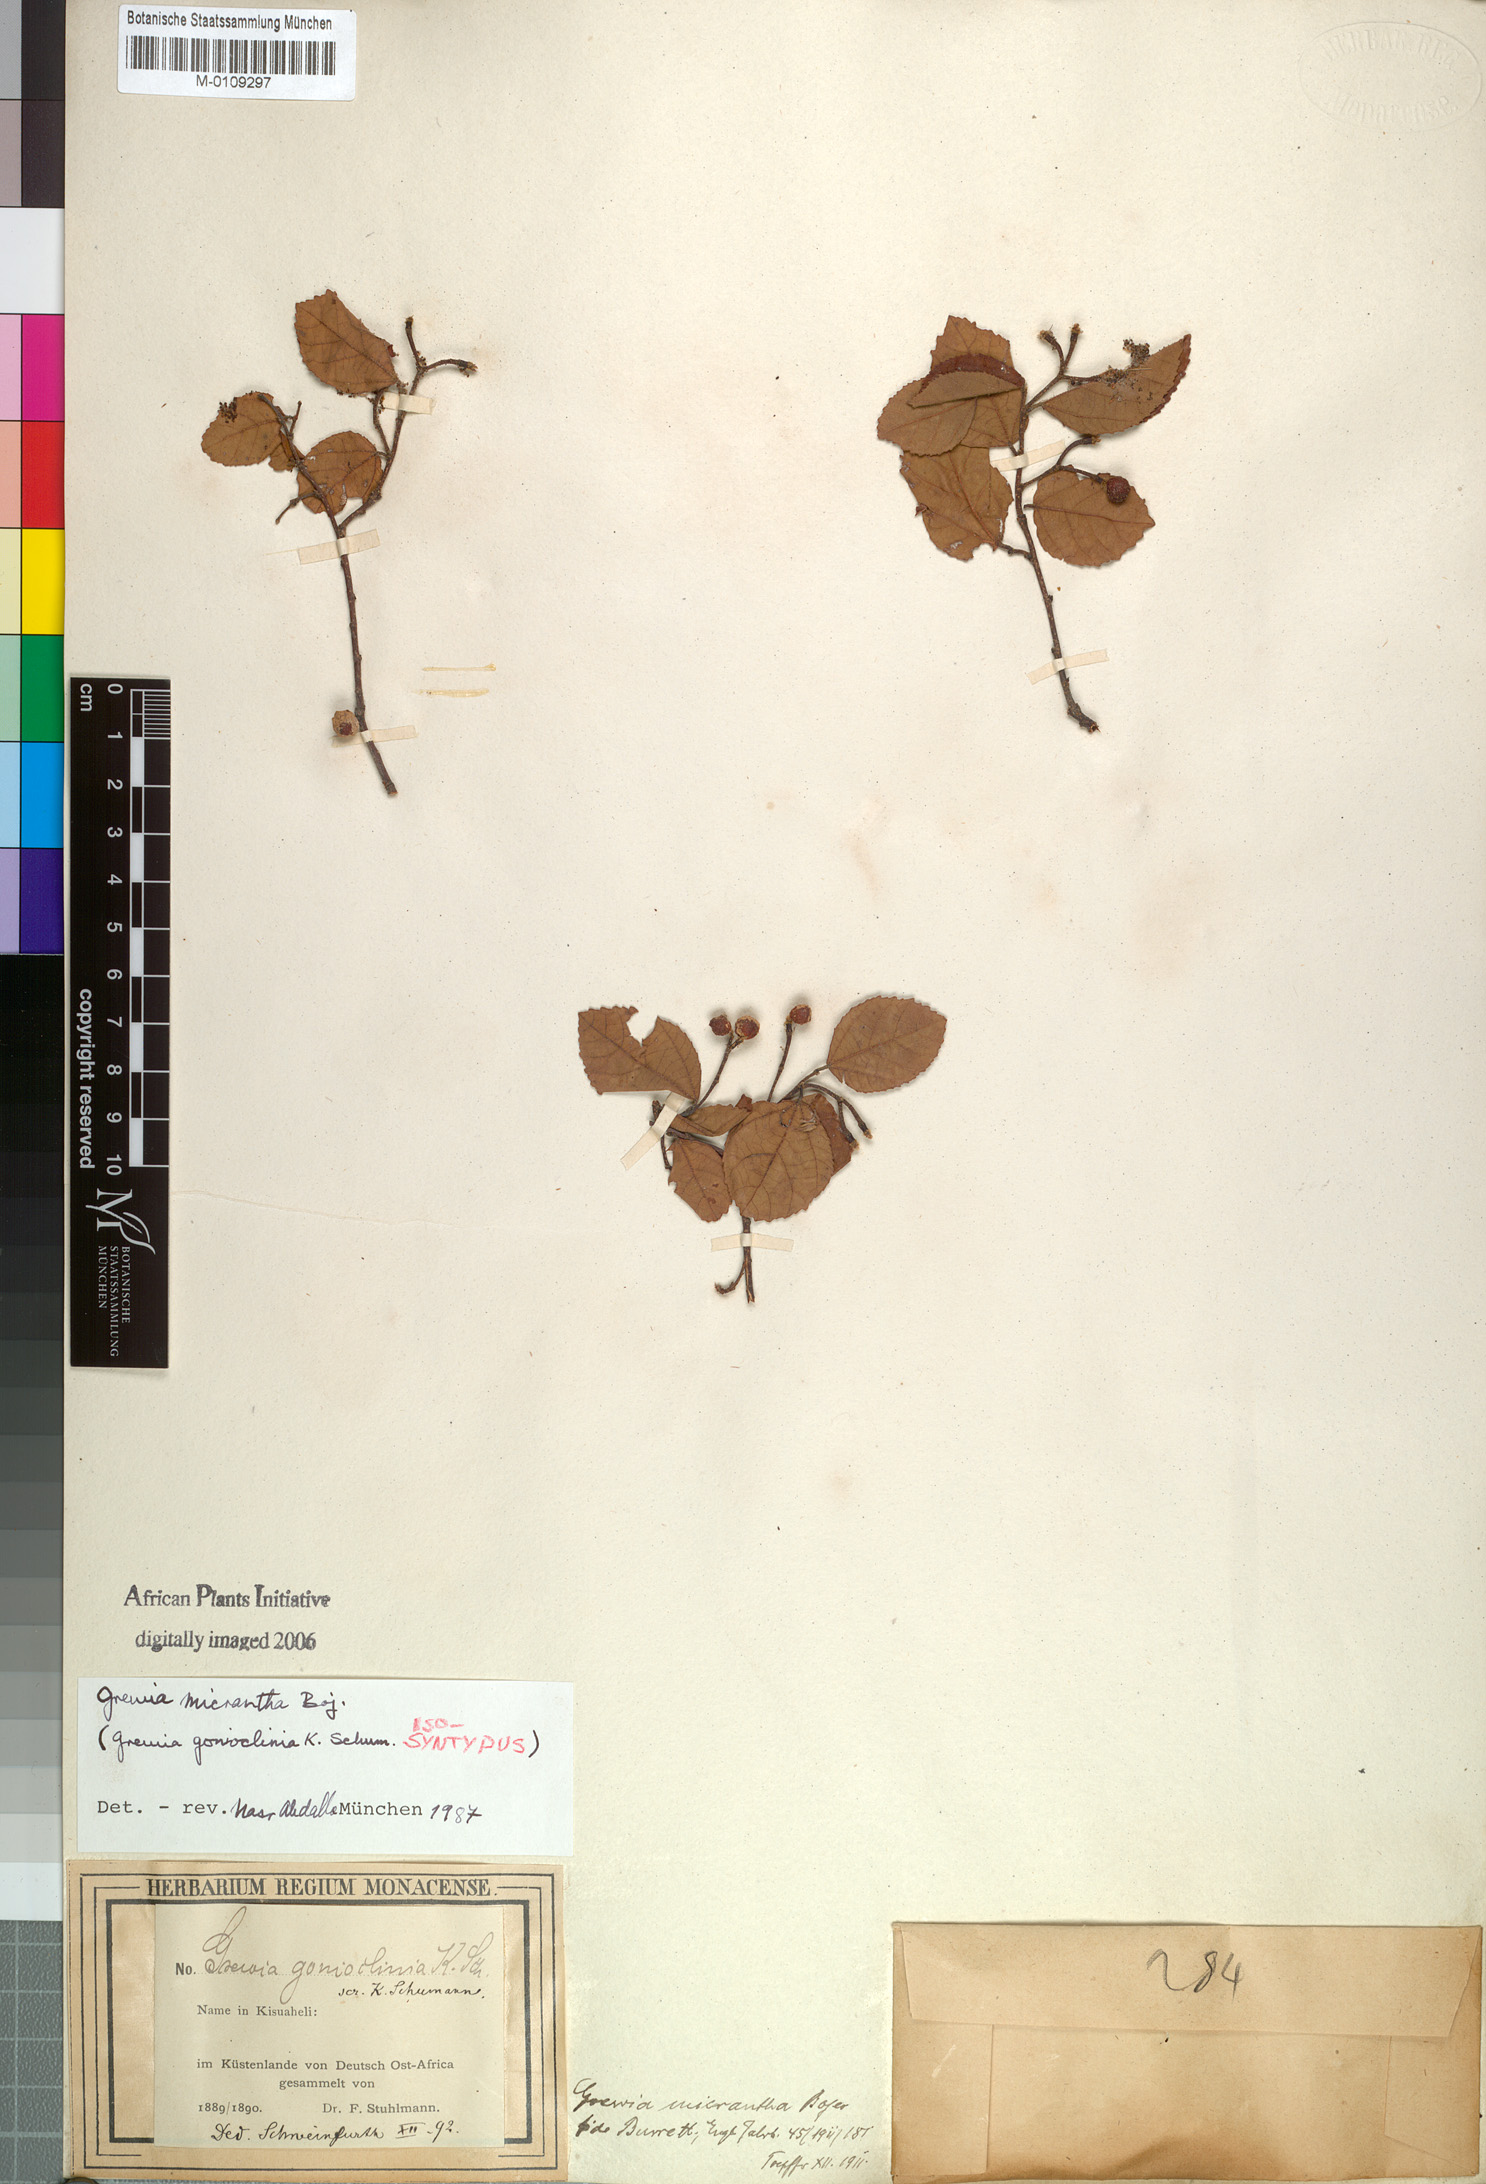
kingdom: Plantae
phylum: Tracheophyta
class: Magnoliopsida
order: Malvales
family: Malvaceae
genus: Grewia
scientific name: Grewia woodiana
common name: Golden fruit raisin
